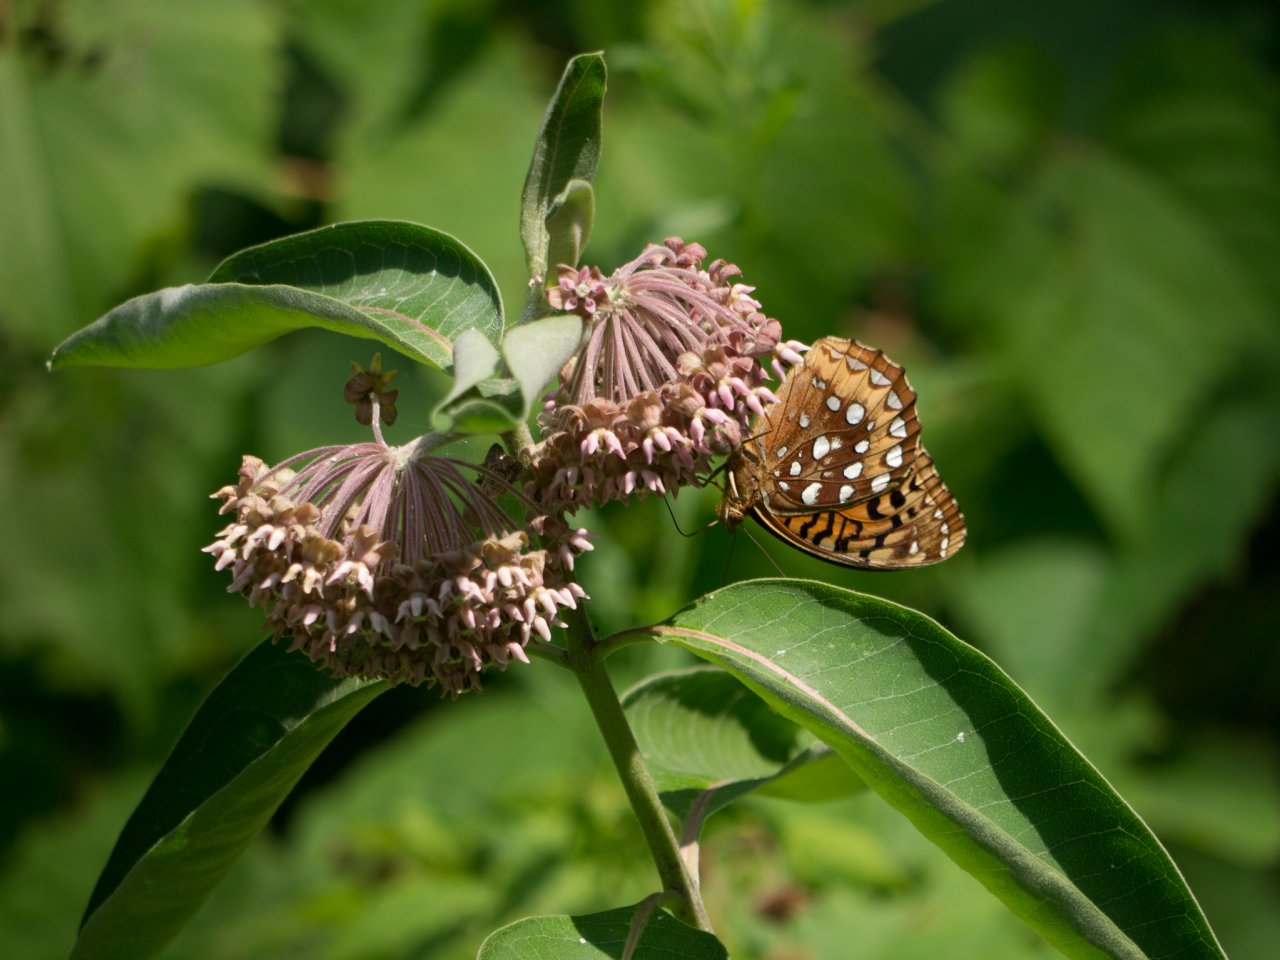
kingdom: Animalia
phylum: Arthropoda
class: Insecta
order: Lepidoptera
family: Nymphalidae
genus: Speyeria
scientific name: Speyeria cybele
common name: Great Spangled Fritillary
